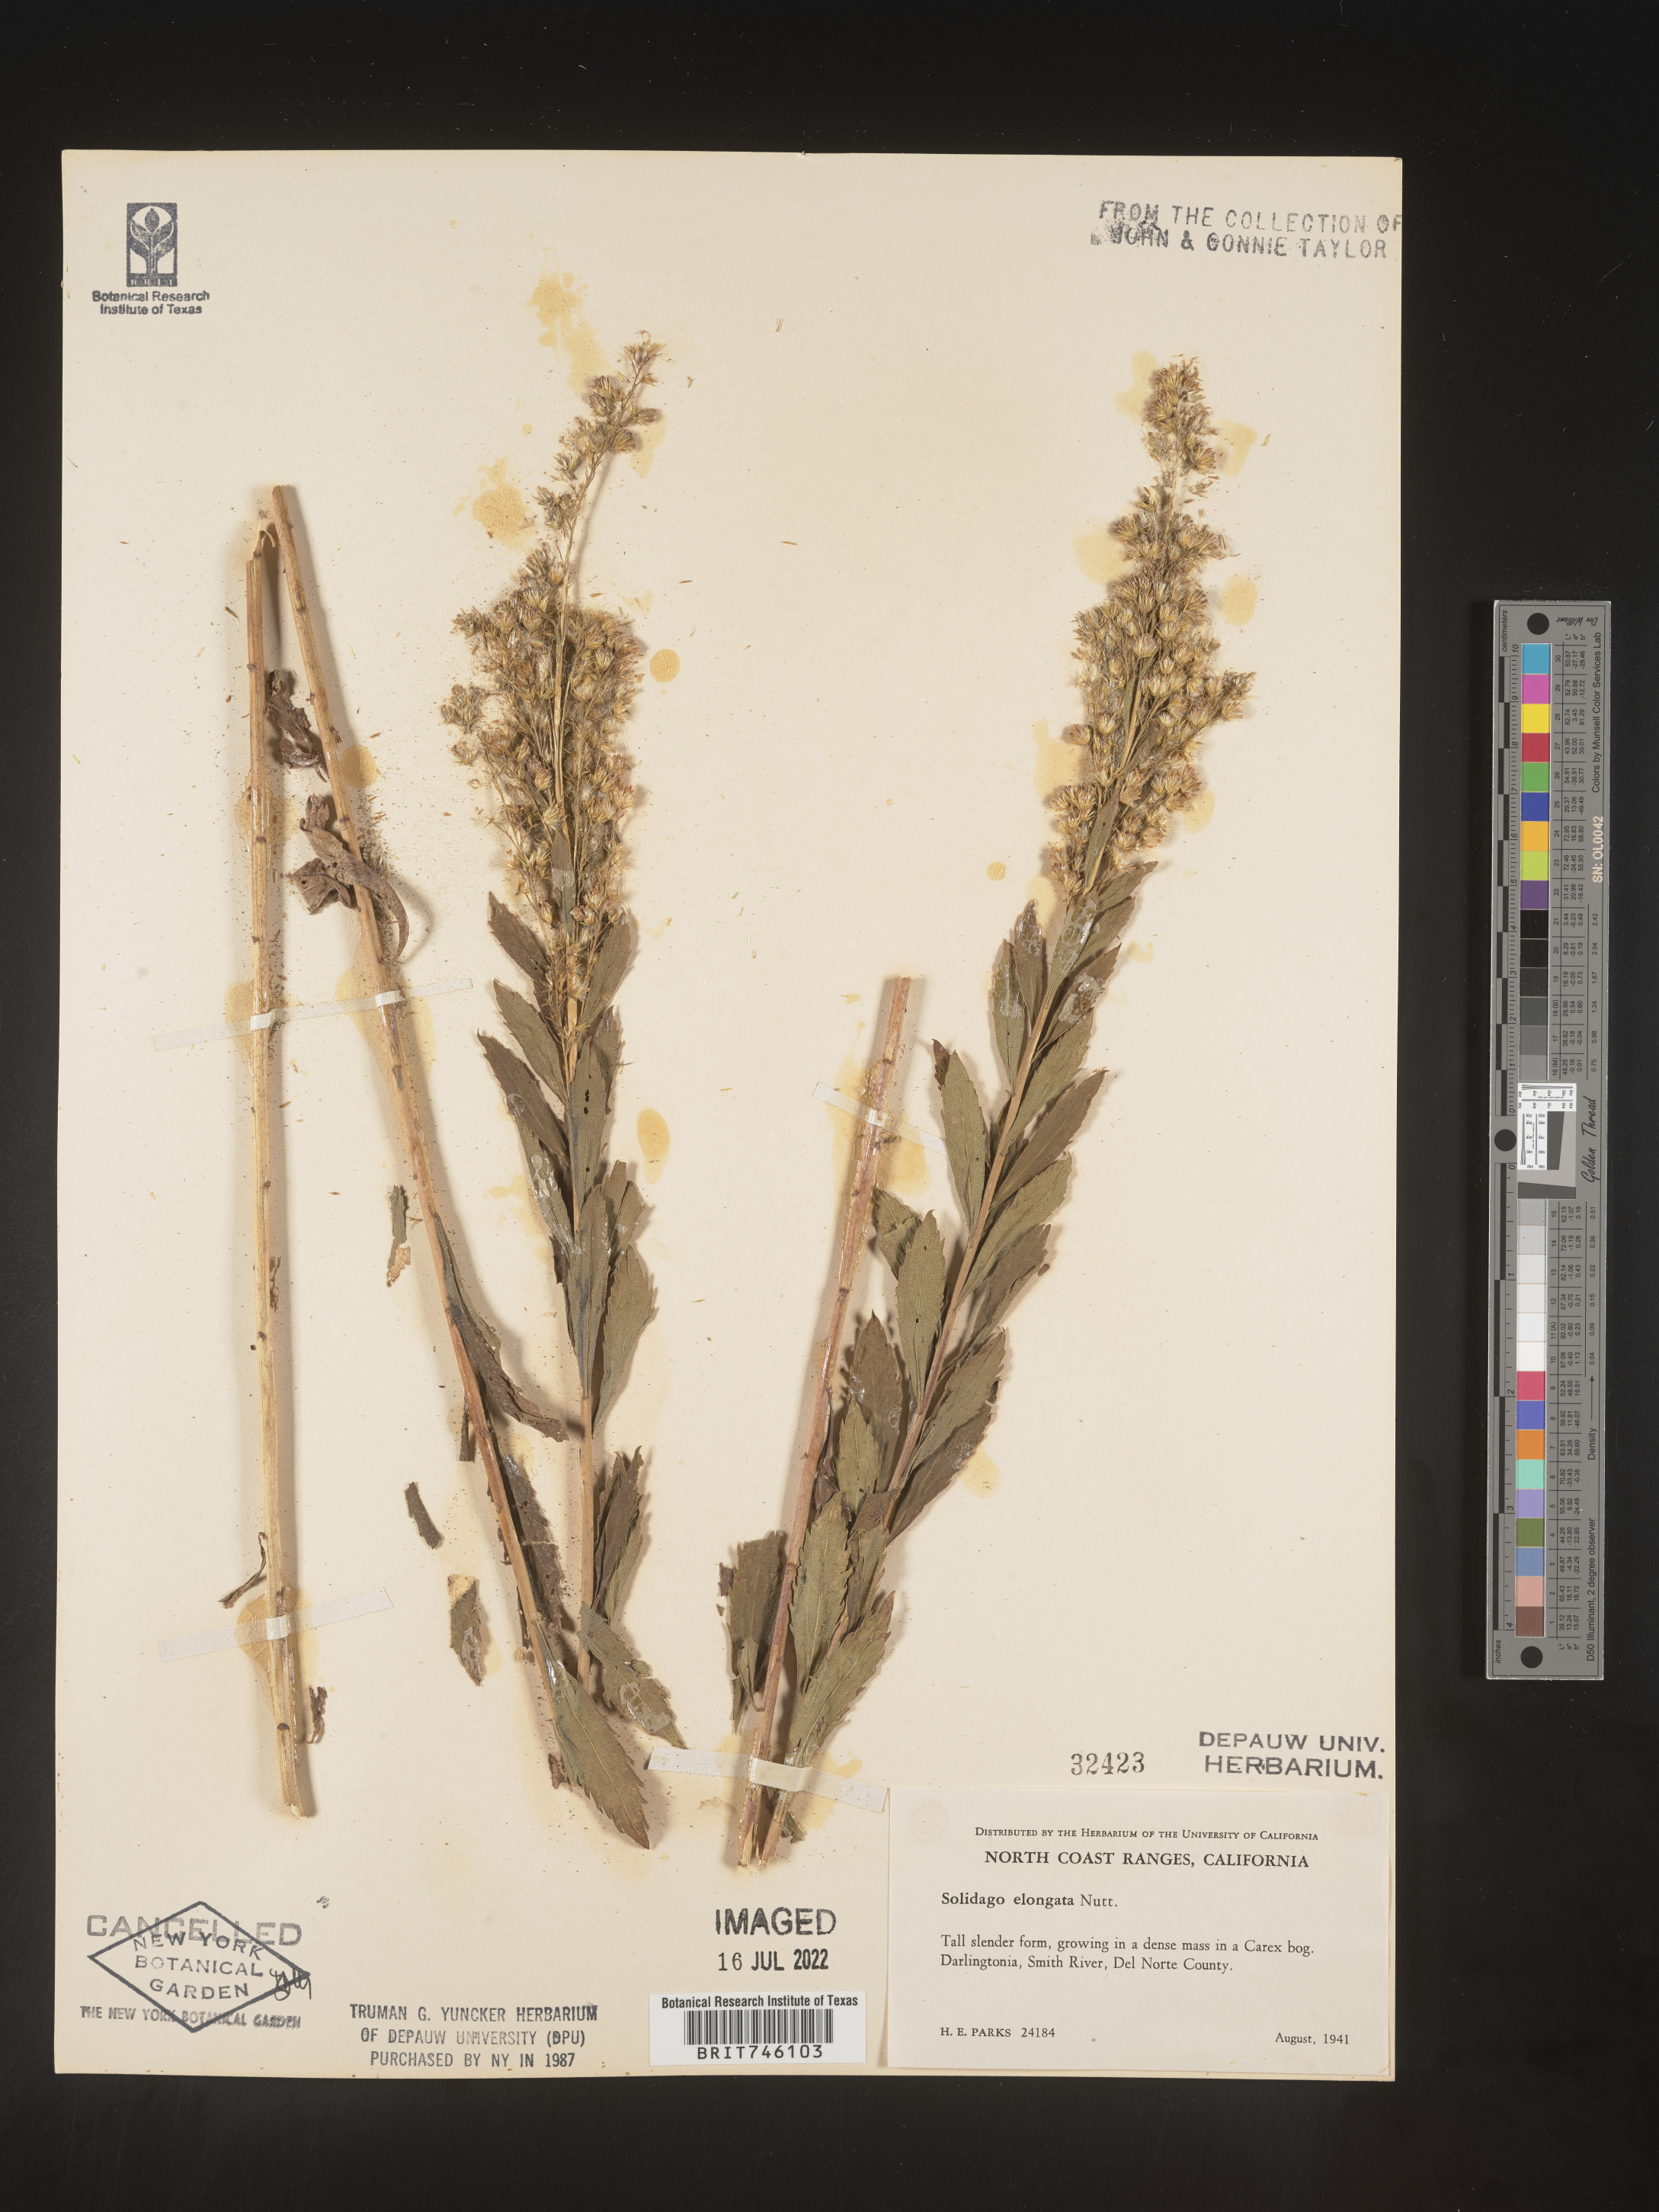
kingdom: Plantae
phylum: Tracheophyta
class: Magnoliopsida
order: Asterales
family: Asteraceae
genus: Solidago
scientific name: Solidago elongata
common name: Cascade canada goldenrod
